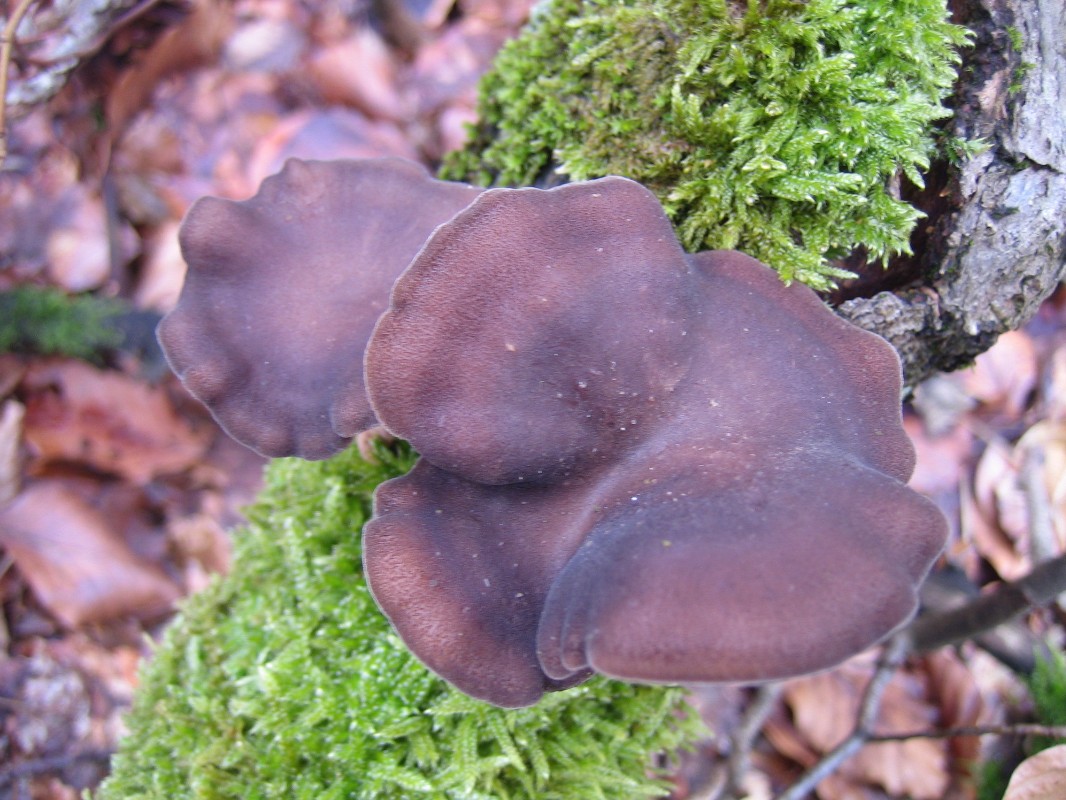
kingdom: Fungi
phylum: Basidiomycota
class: Agaricomycetes
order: Polyporales
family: Polyporaceae
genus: Lentinus
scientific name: Lentinus brumalis
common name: vinter-stilkporesvamp
